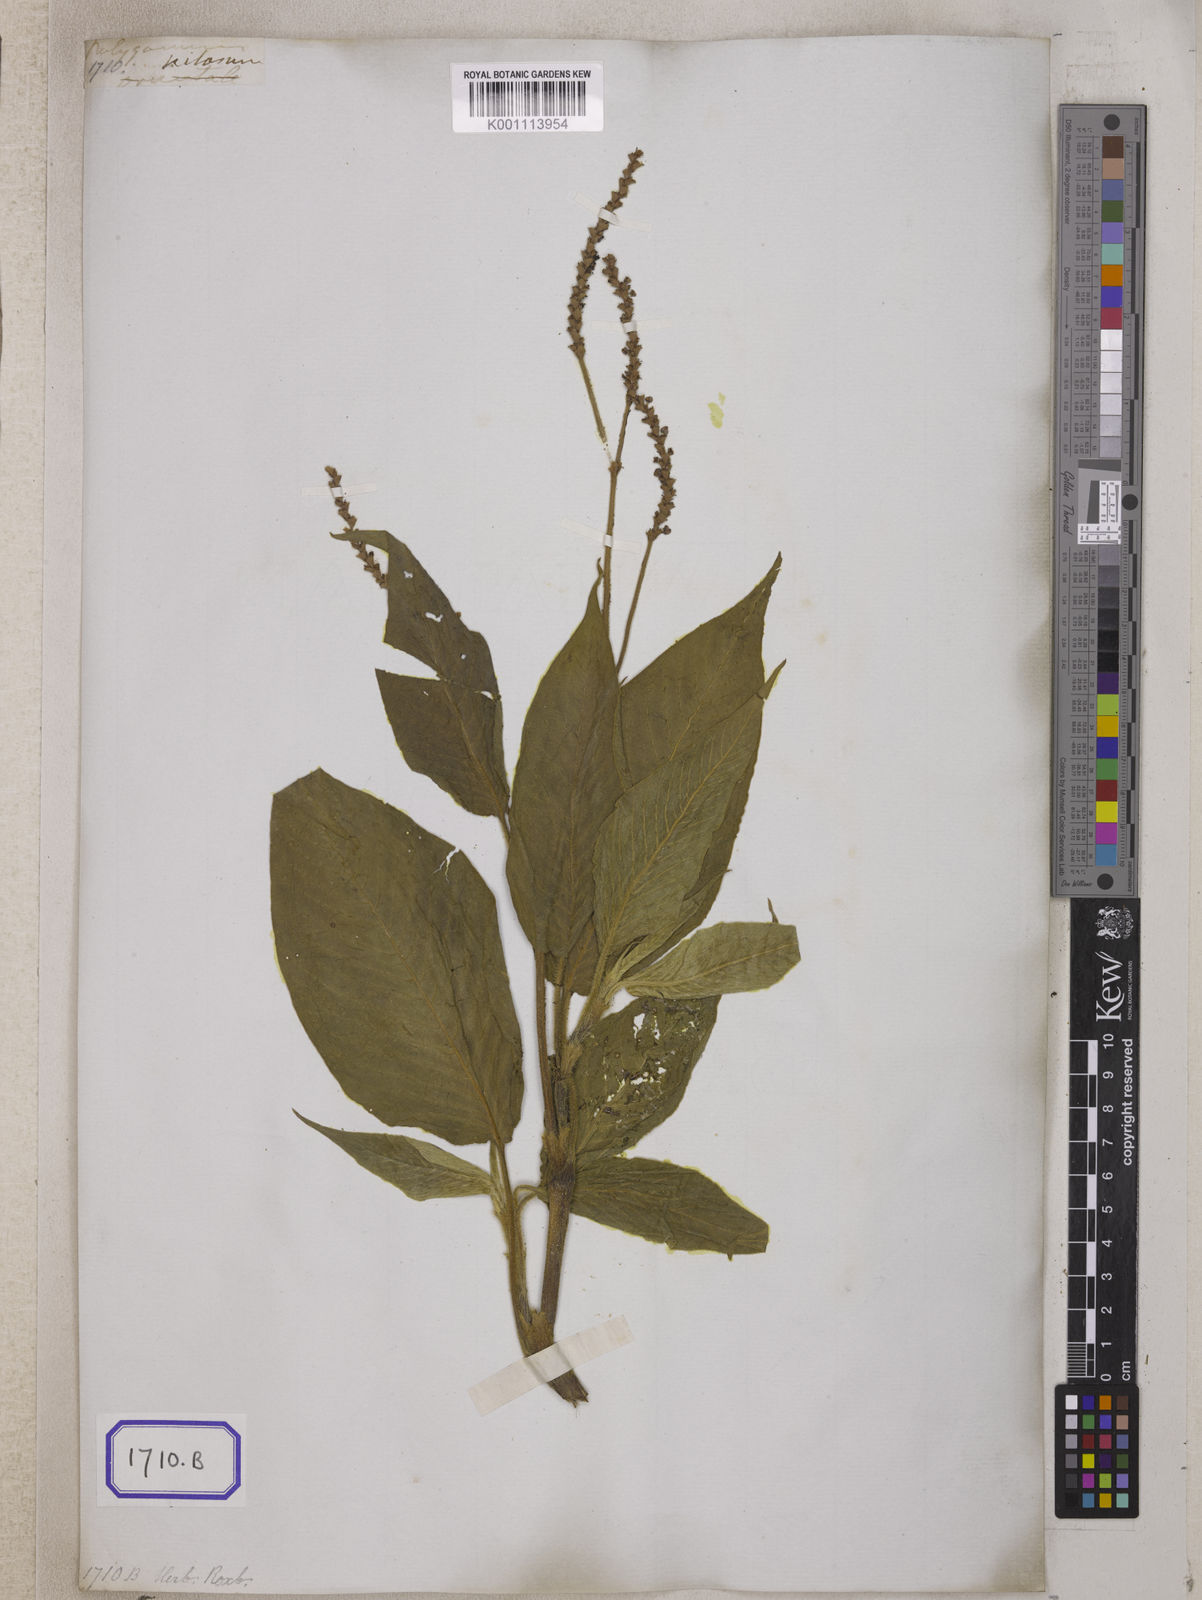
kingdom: Plantae
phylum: Tracheophyta
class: Magnoliopsida
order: Caryophyllales
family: Polygonaceae
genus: Polygonum
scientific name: Polygonum
